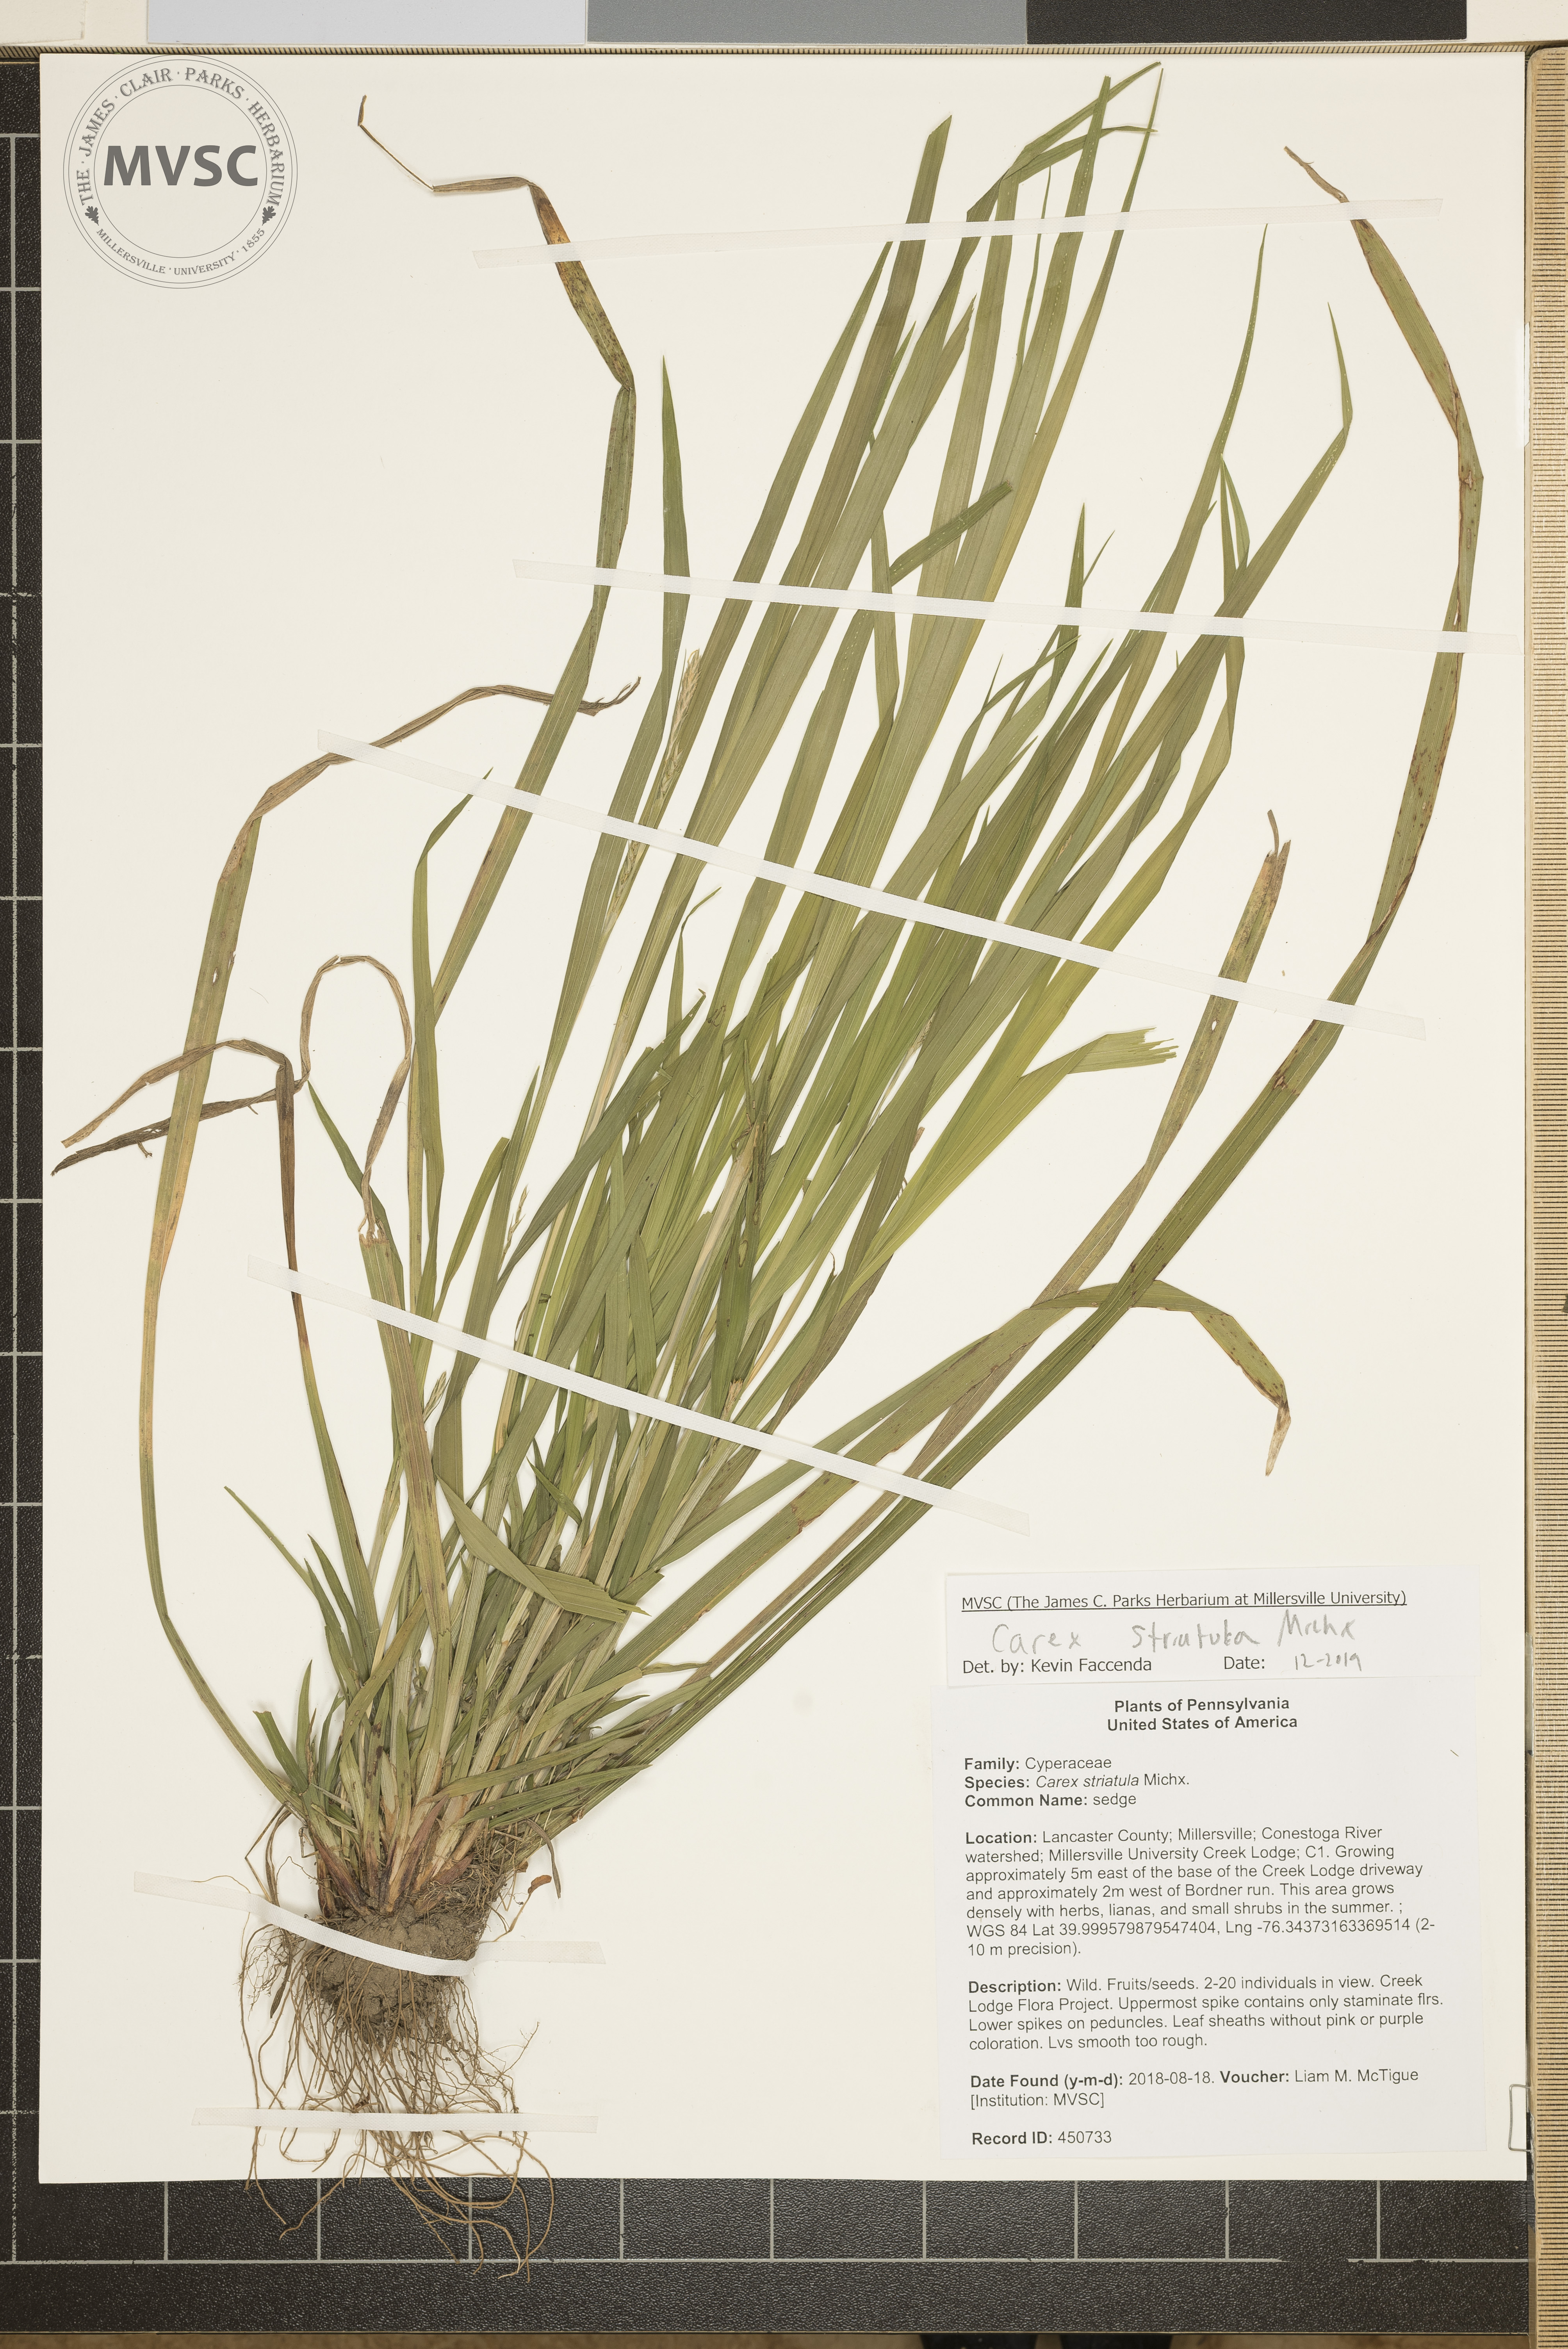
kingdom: Plantae
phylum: Tracheophyta
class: Liliopsida
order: Poales
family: Cyperaceae
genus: Carex
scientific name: Carex striatula
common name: sedge
